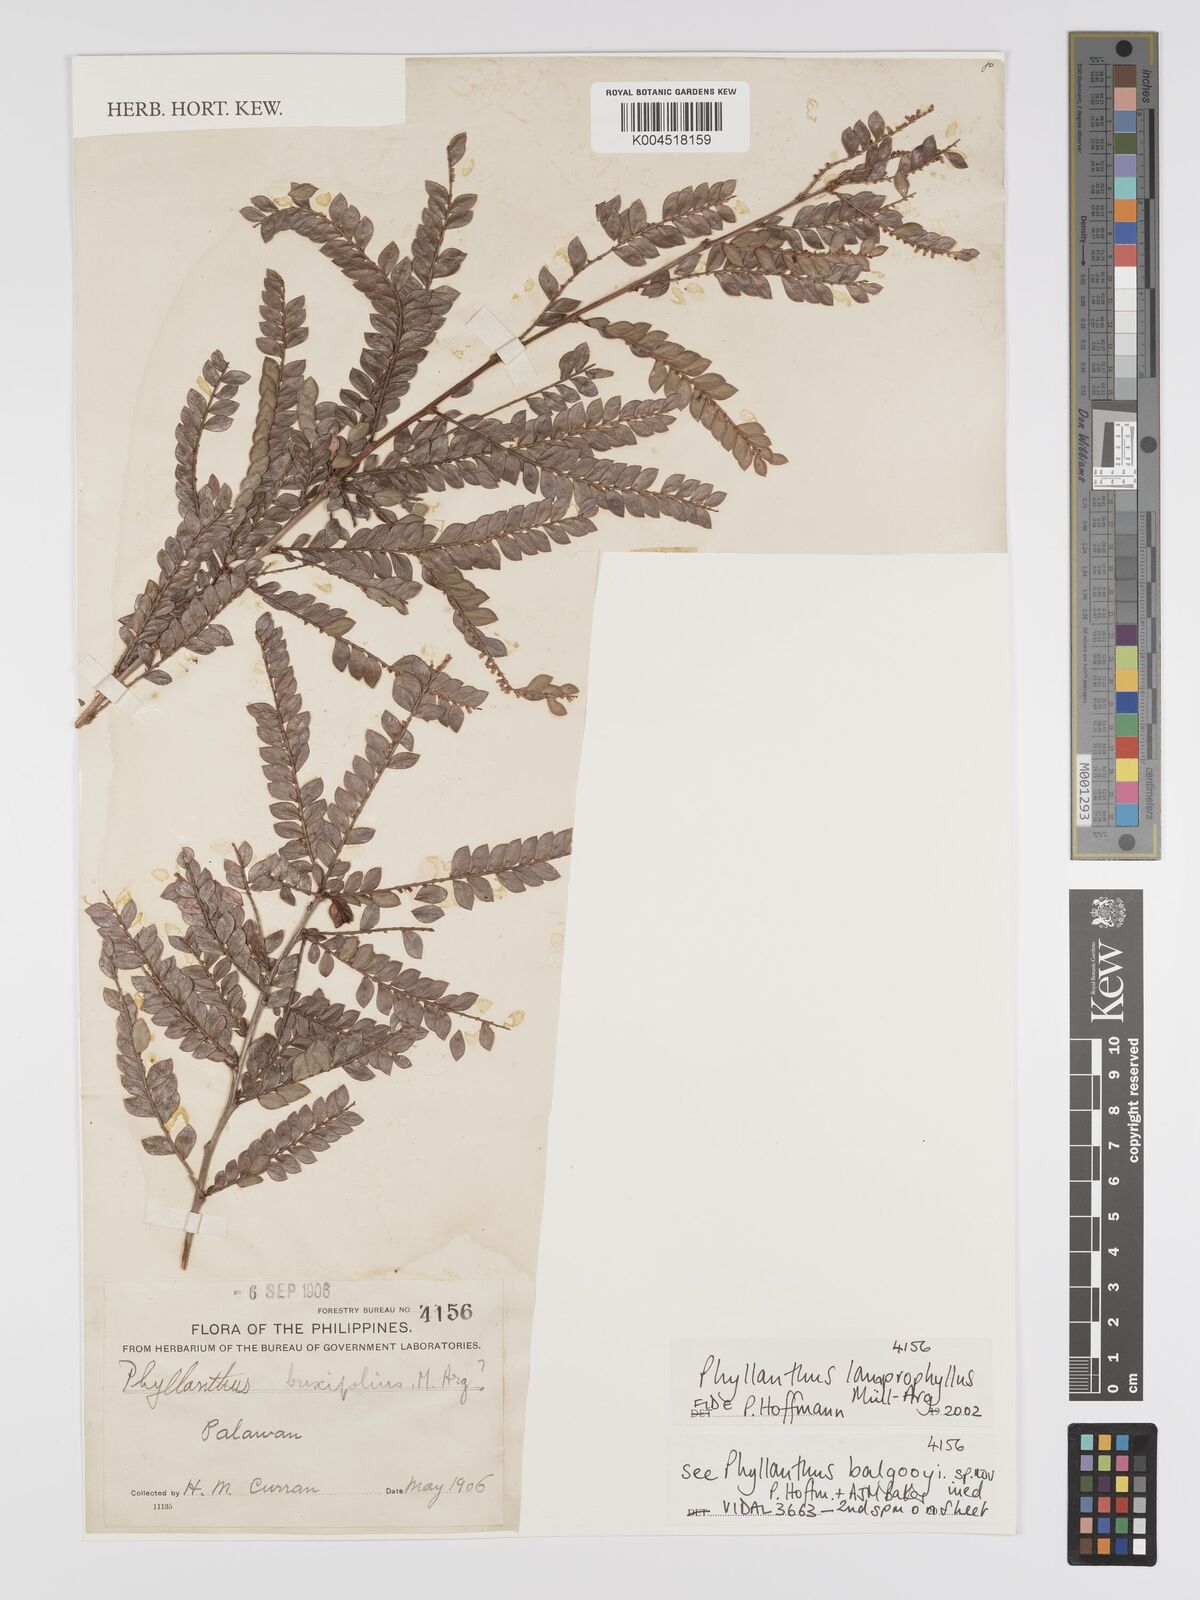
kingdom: Plantae
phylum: Tracheophyta
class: Magnoliopsida
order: Malpighiales
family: Phyllanthaceae
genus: Glochidion
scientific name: Glochidion lamprophyllum
